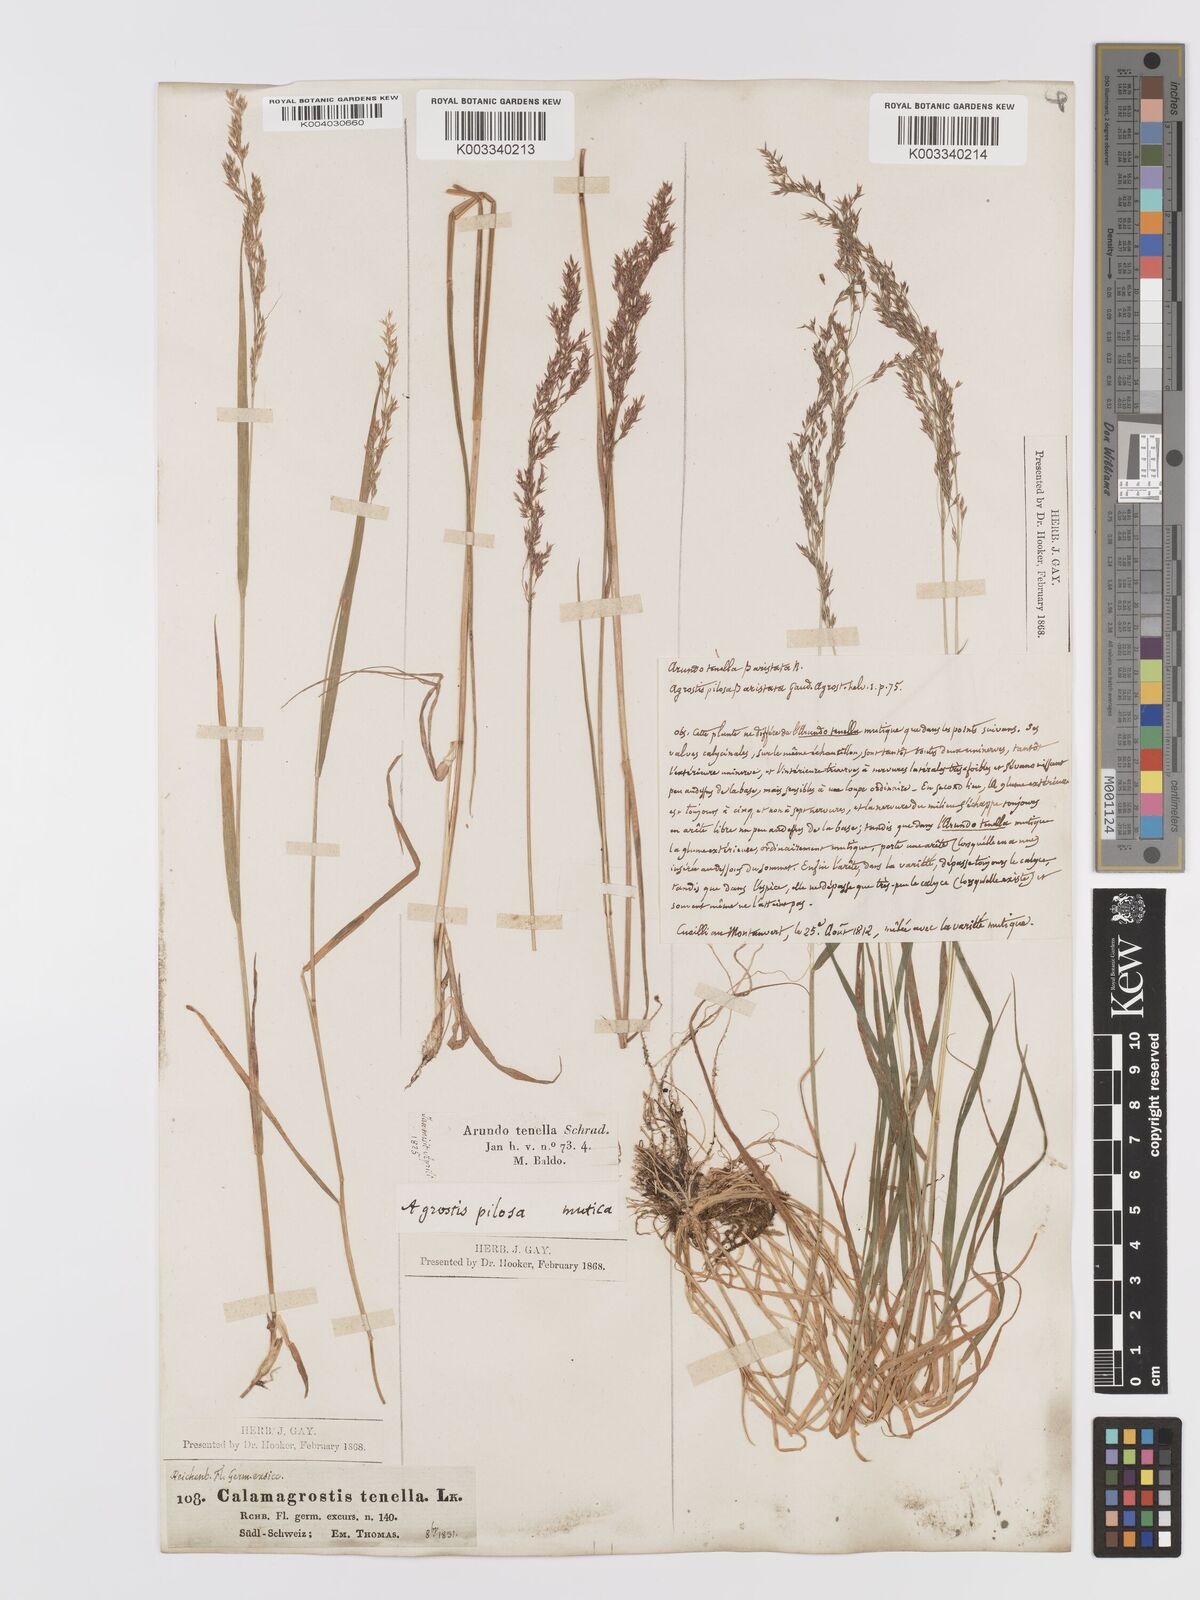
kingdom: Plantae
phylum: Tracheophyta
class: Liliopsida
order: Poales
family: Poaceae
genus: Agrostis
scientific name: Agrostis schraderiana
